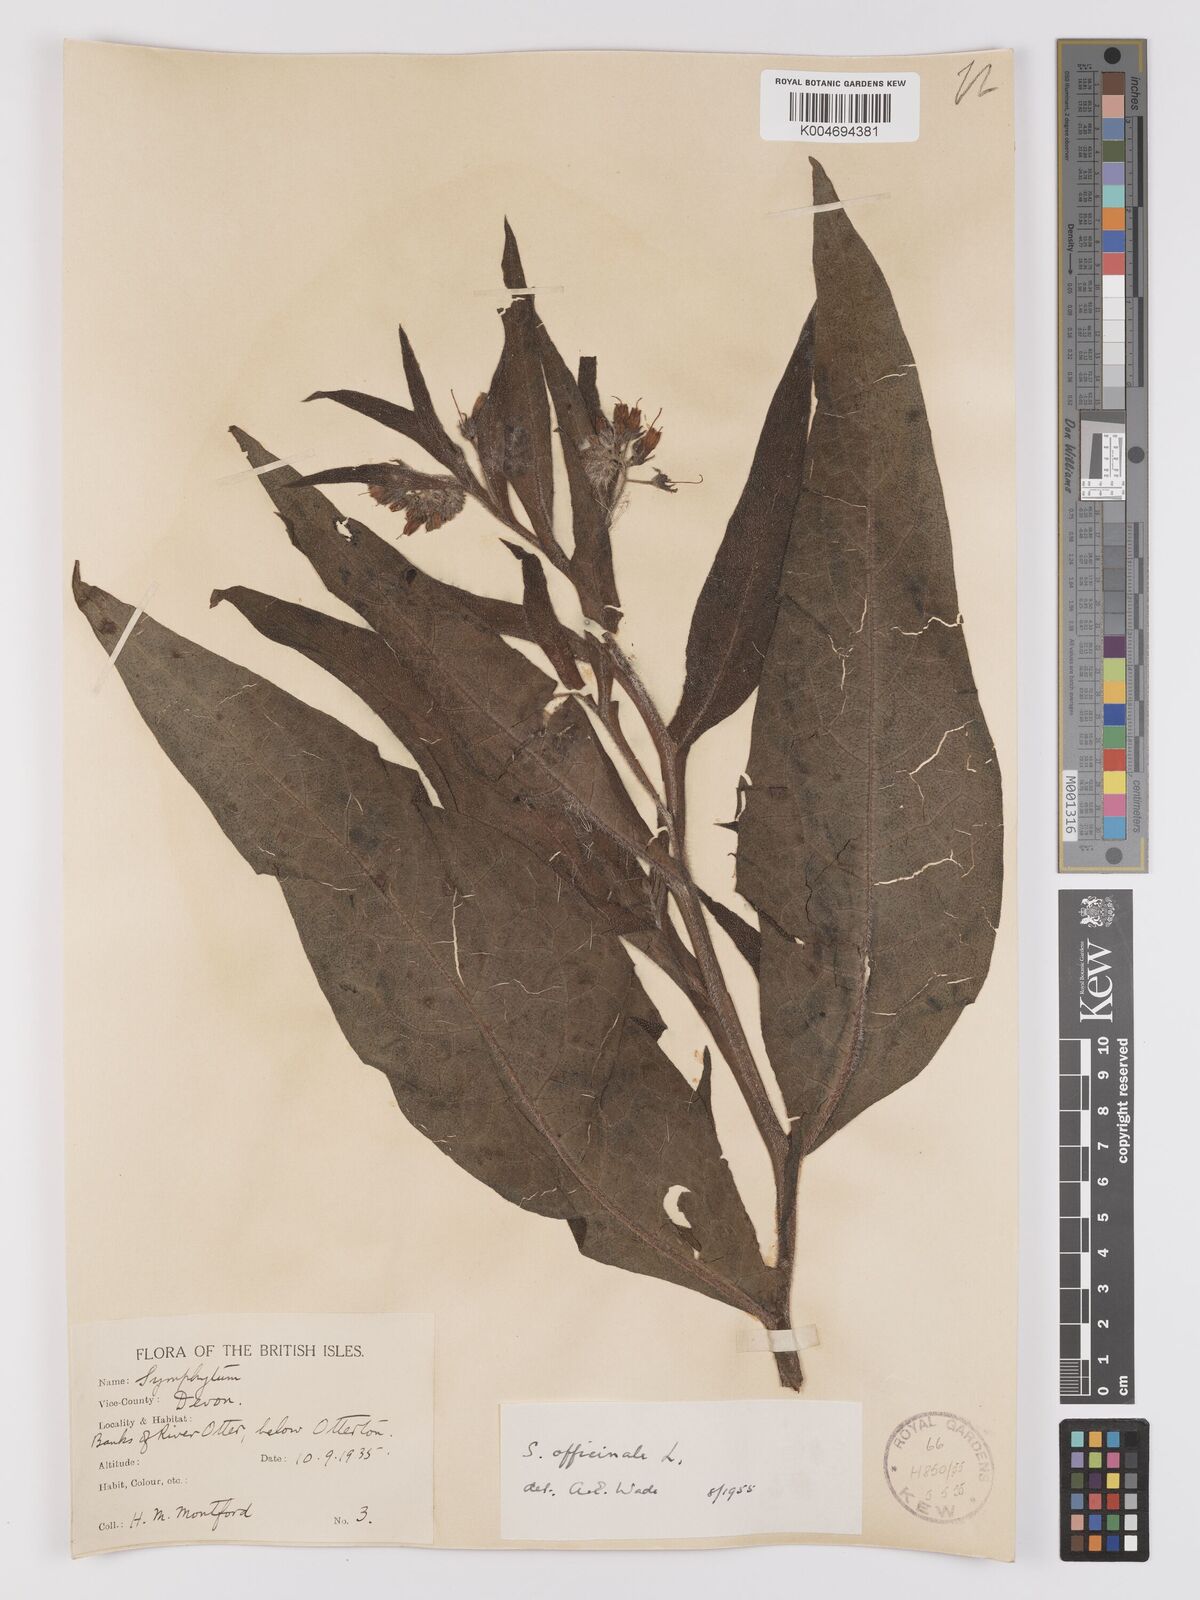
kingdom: Plantae
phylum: Tracheophyta
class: Magnoliopsida
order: Boraginales
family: Boraginaceae
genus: Symphytum
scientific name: Symphytum officinale
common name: Common comfrey
